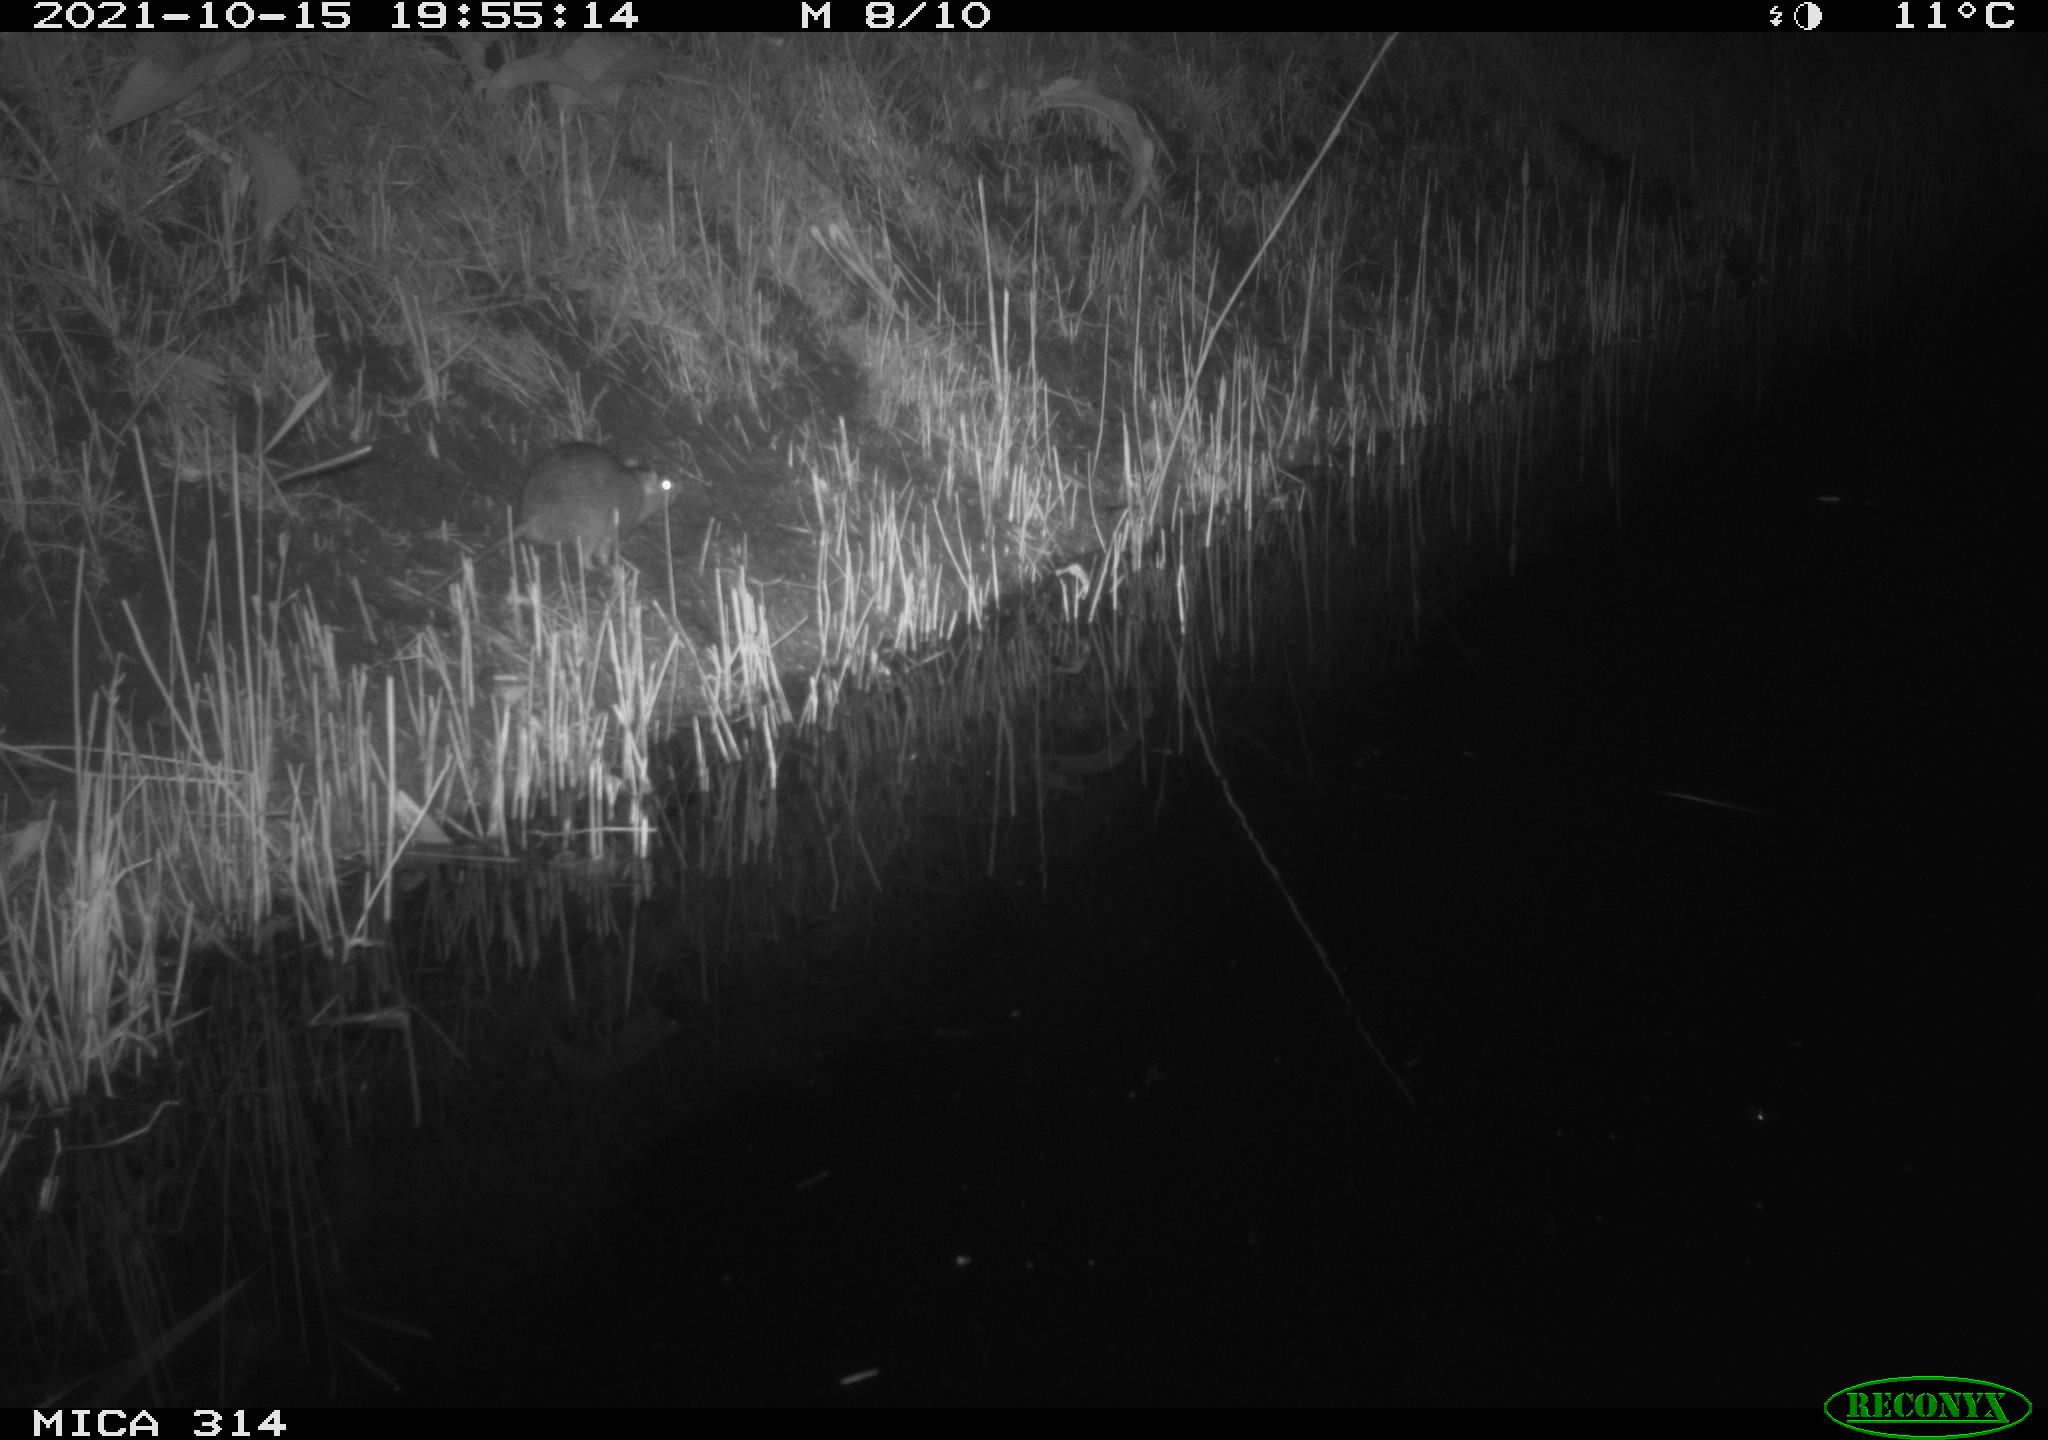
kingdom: Animalia
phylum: Chordata
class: Mammalia
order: Rodentia
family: Muridae
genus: Rattus
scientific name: Rattus norvegicus
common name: Brown rat
